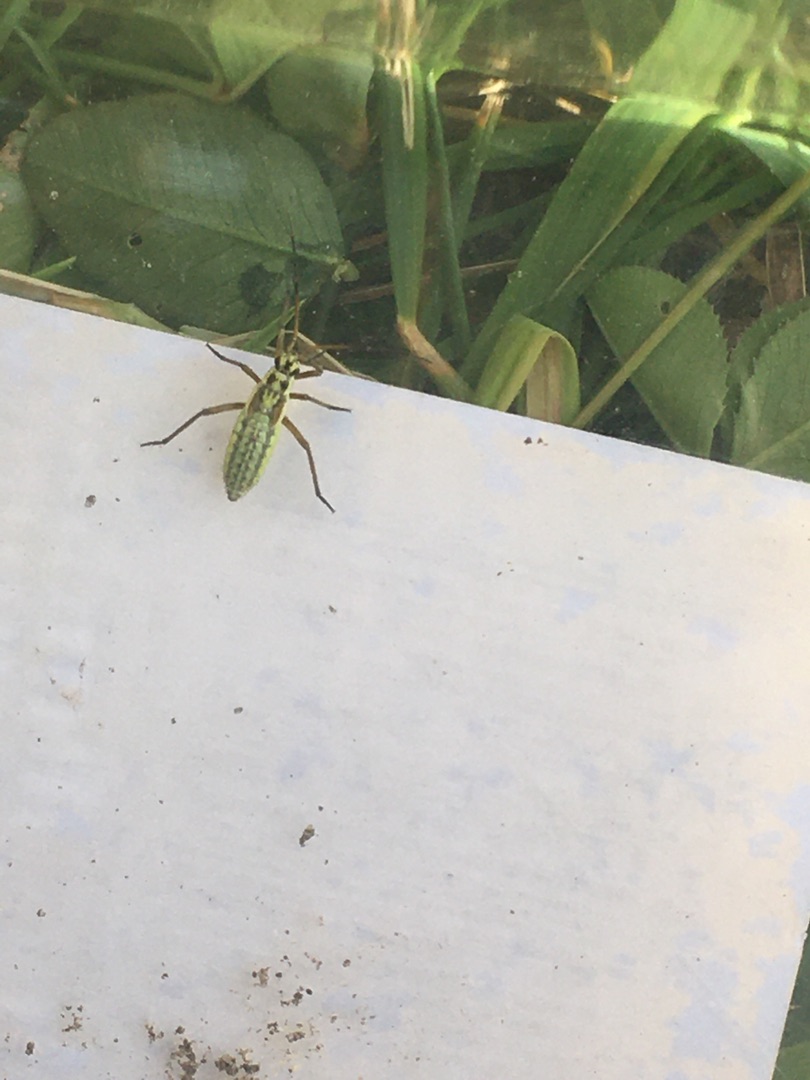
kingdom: Animalia
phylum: Arthropoda
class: Insecta
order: Hemiptera
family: Miridae
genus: Leptopterna
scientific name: Leptopterna dolabrata
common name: Almindelig græstæge
